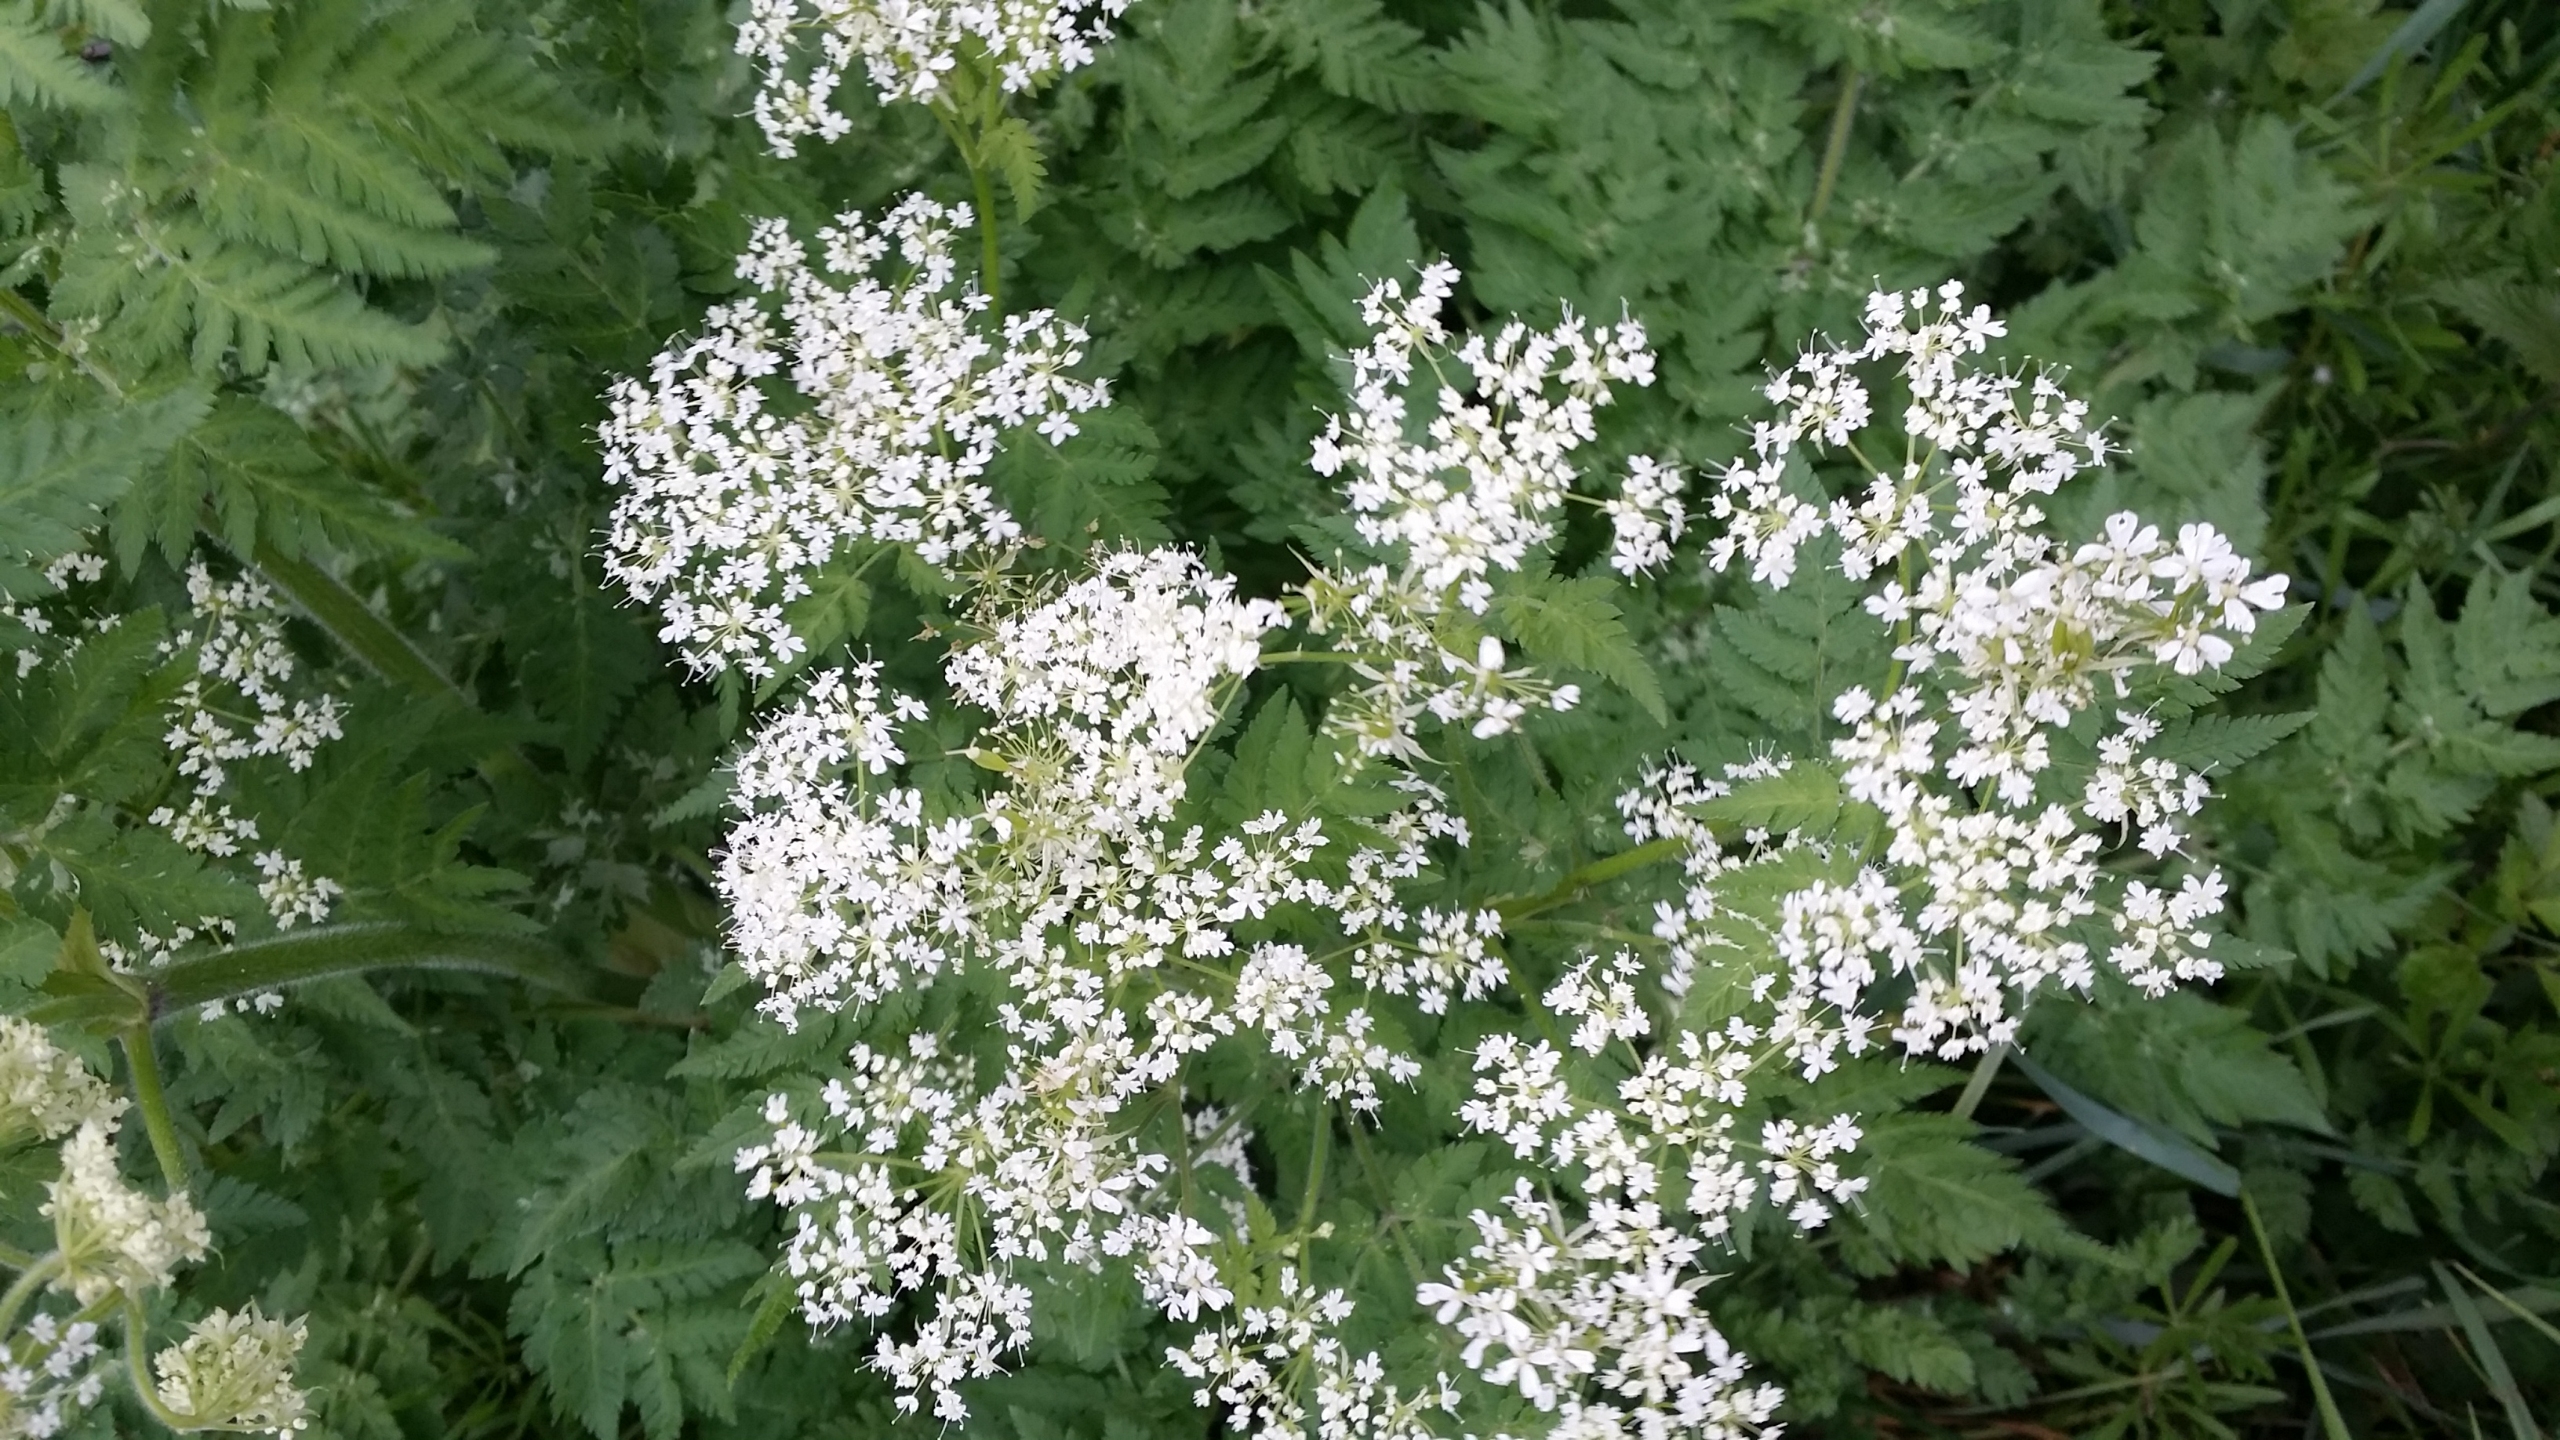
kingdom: Plantae
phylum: Tracheophyta
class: Magnoliopsida
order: Apiales
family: Apiaceae
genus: Myrrhis
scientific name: Myrrhis odorata
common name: Sødskærm
